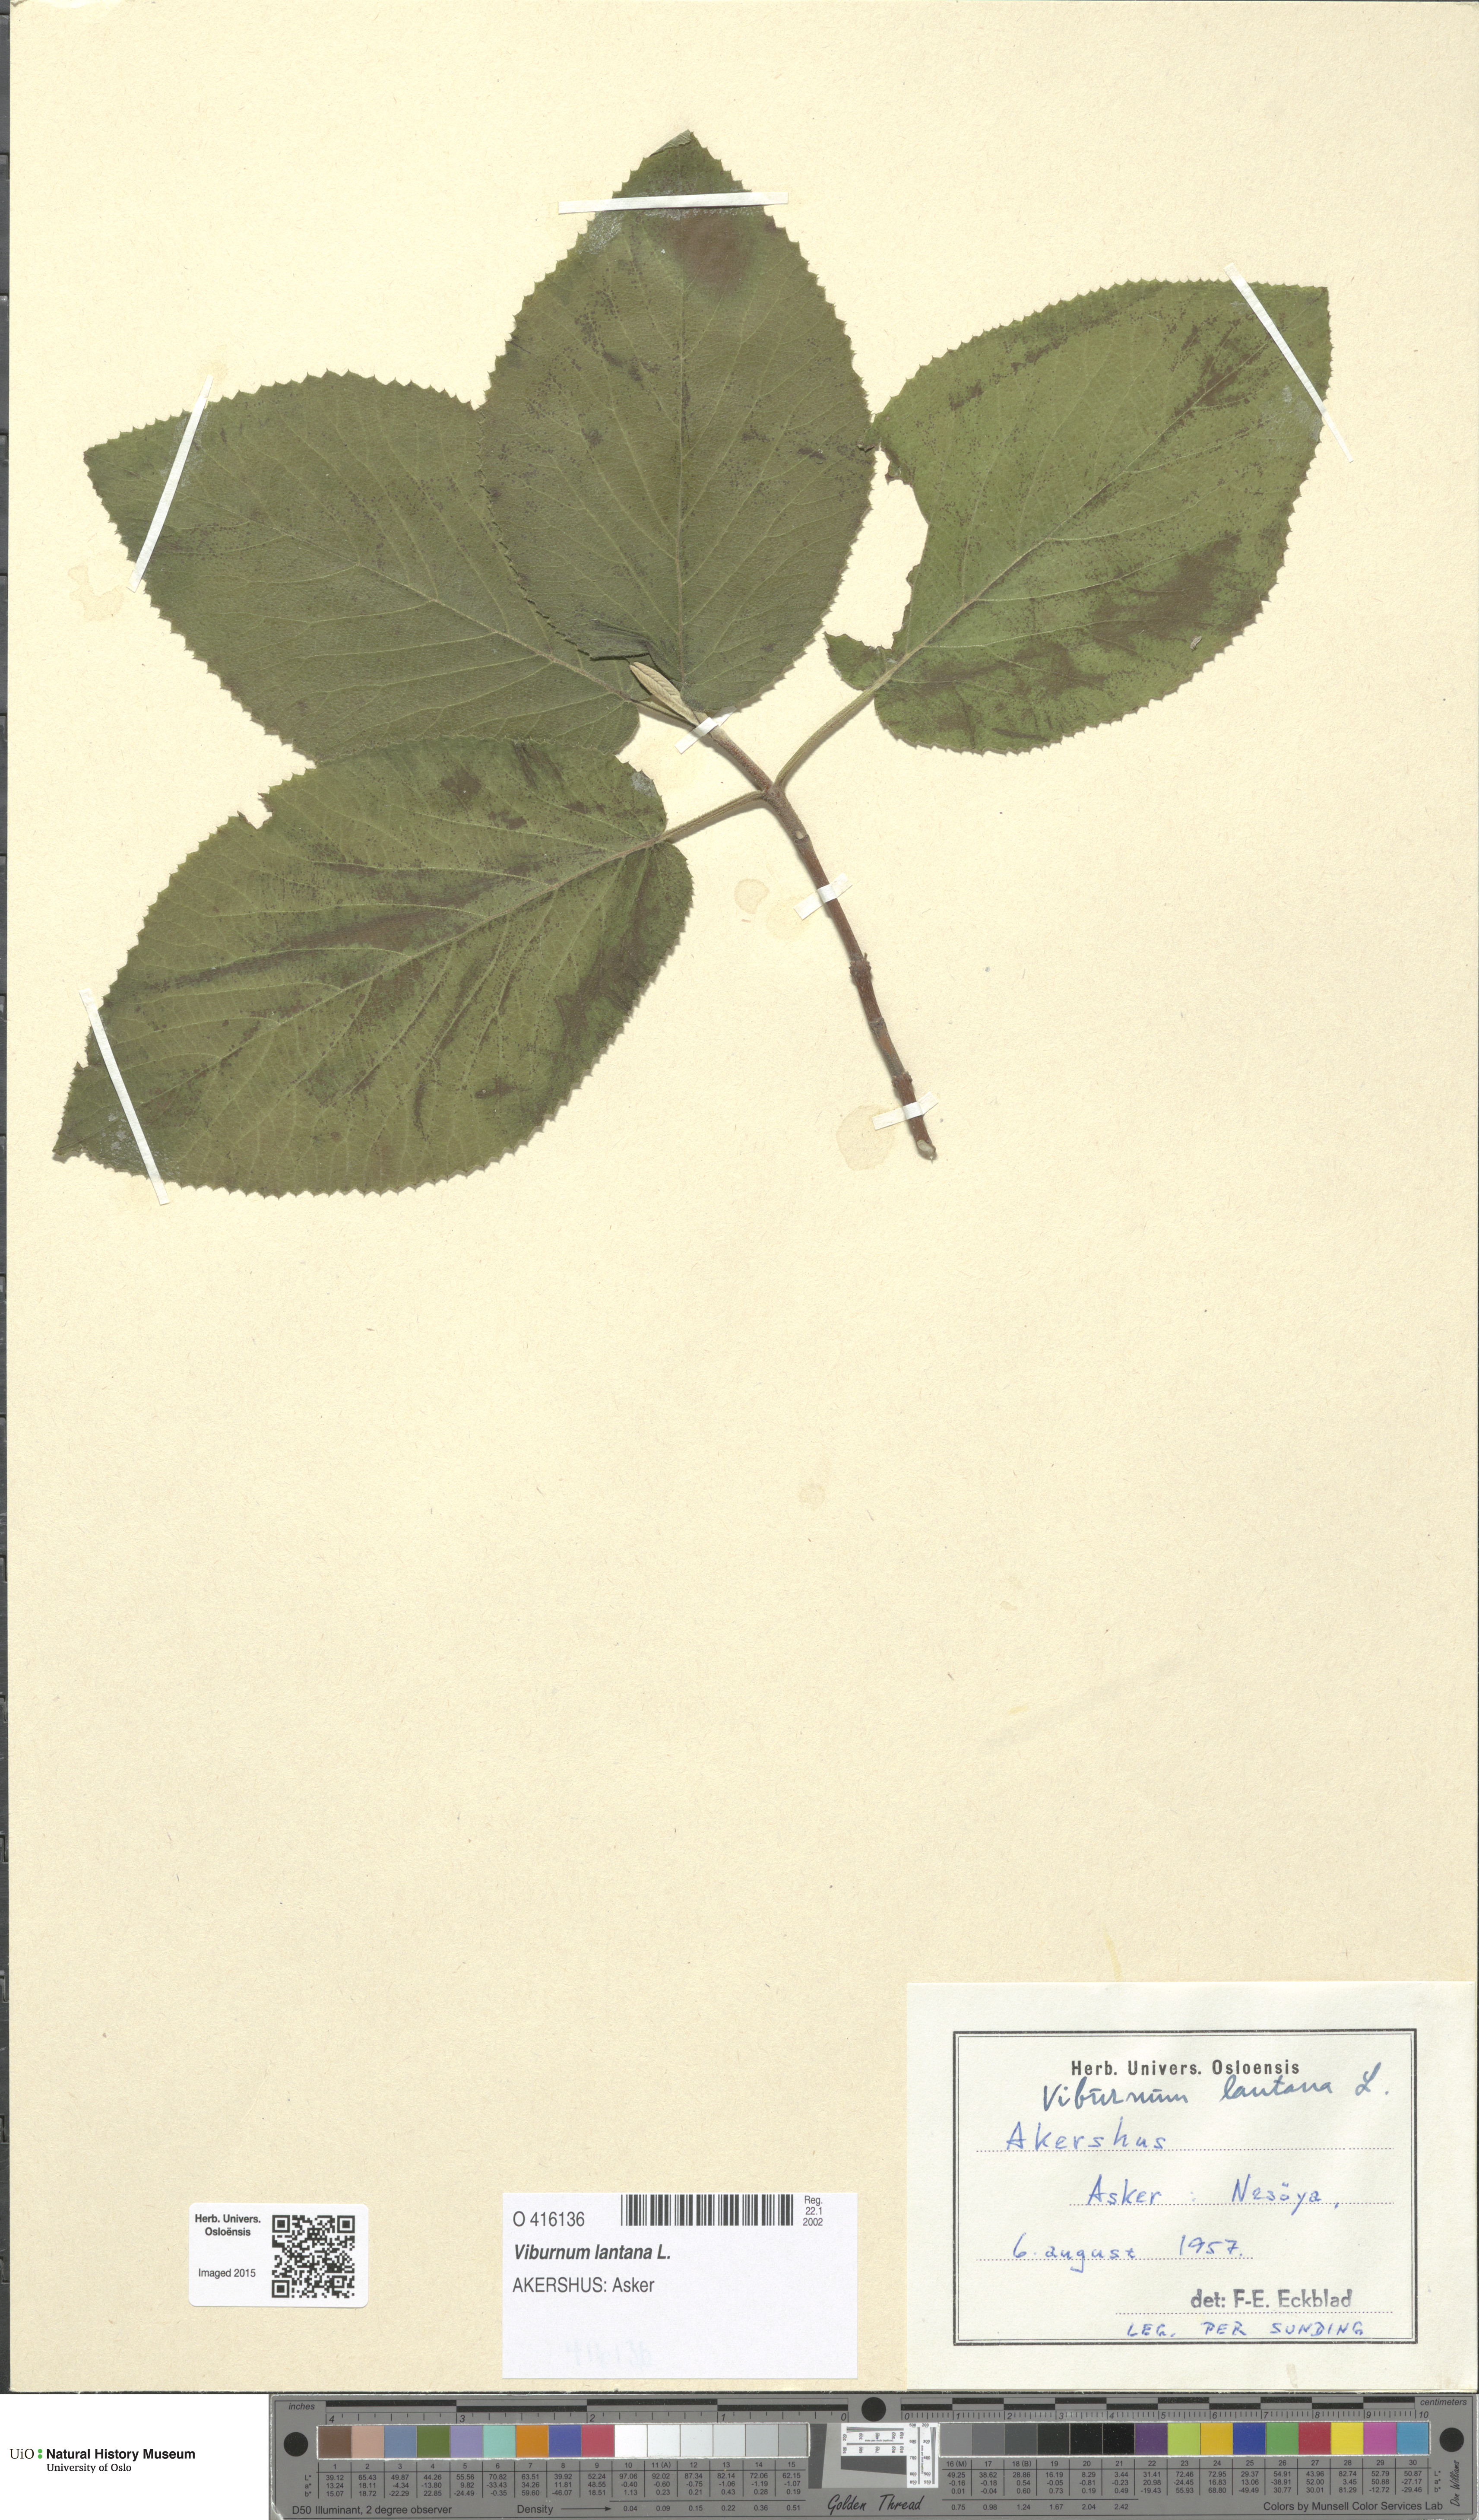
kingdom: Plantae
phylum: Tracheophyta
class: Magnoliopsida
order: Dipsacales
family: Viburnaceae
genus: Viburnum
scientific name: Viburnum lantana
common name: Wayfaring tree
